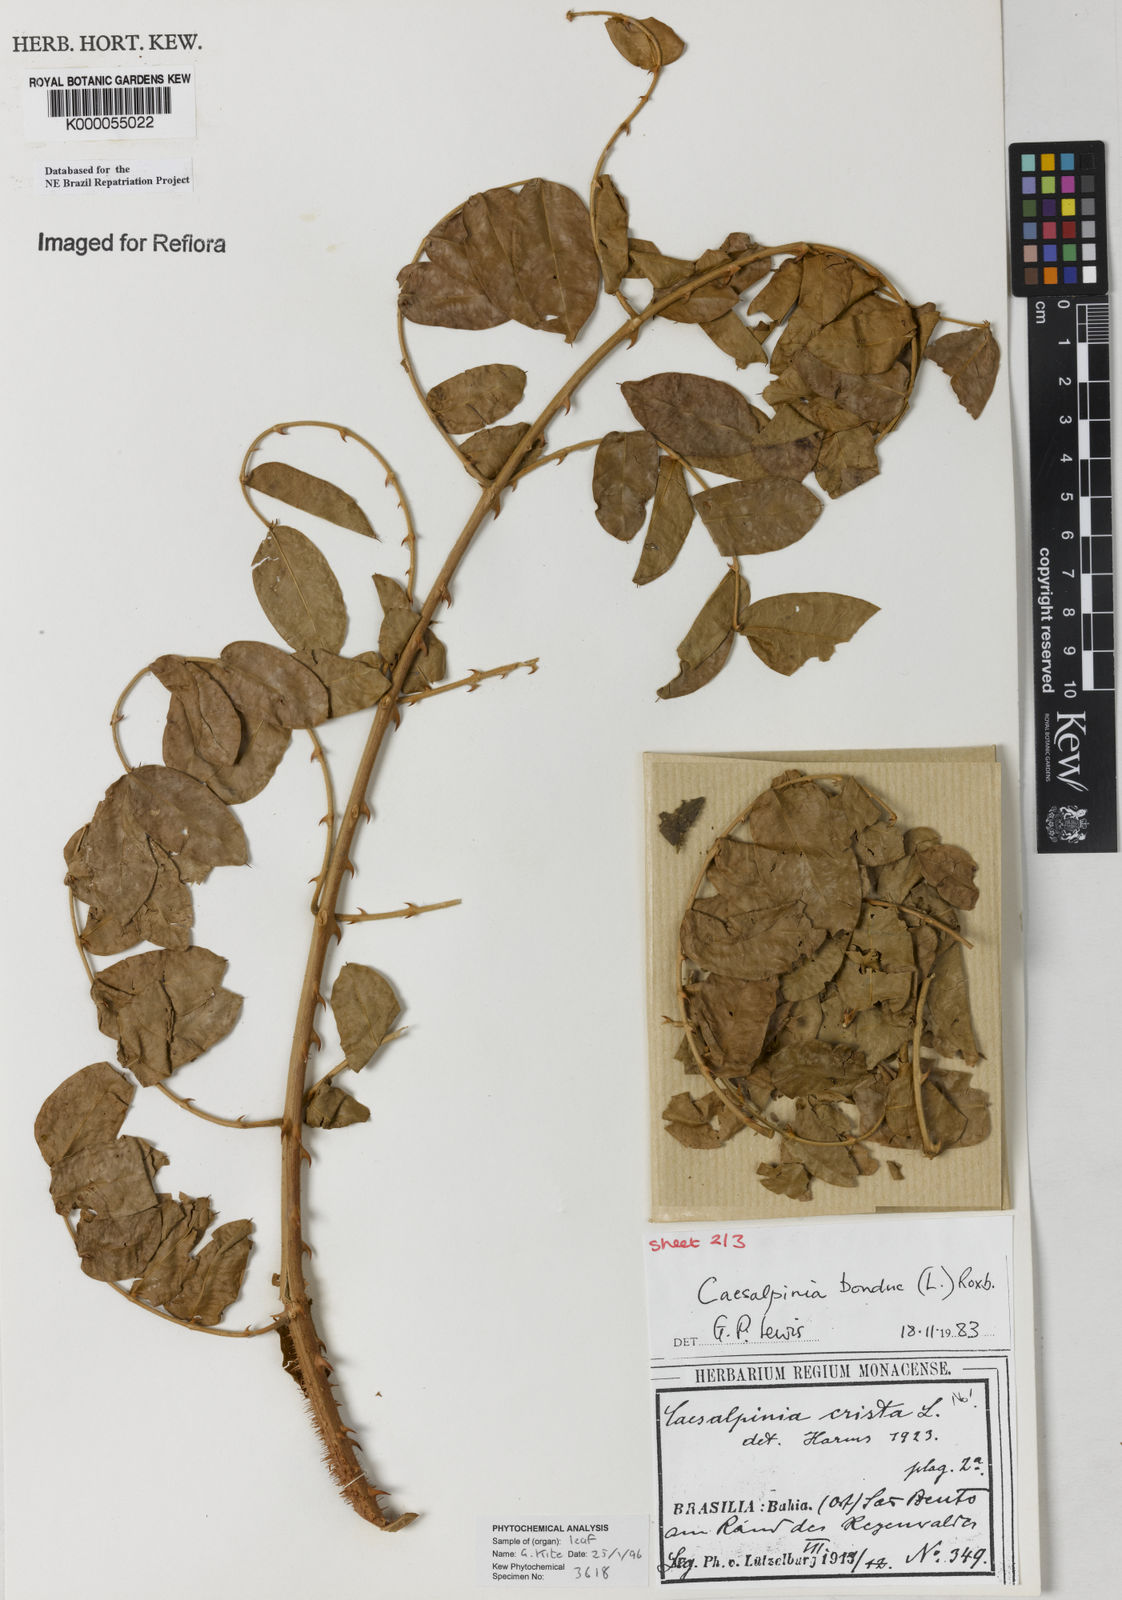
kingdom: Plantae
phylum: Tracheophyta
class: Magnoliopsida
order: Fabales
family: Fabaceae
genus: Guilandina
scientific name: Guilandina bonduc
